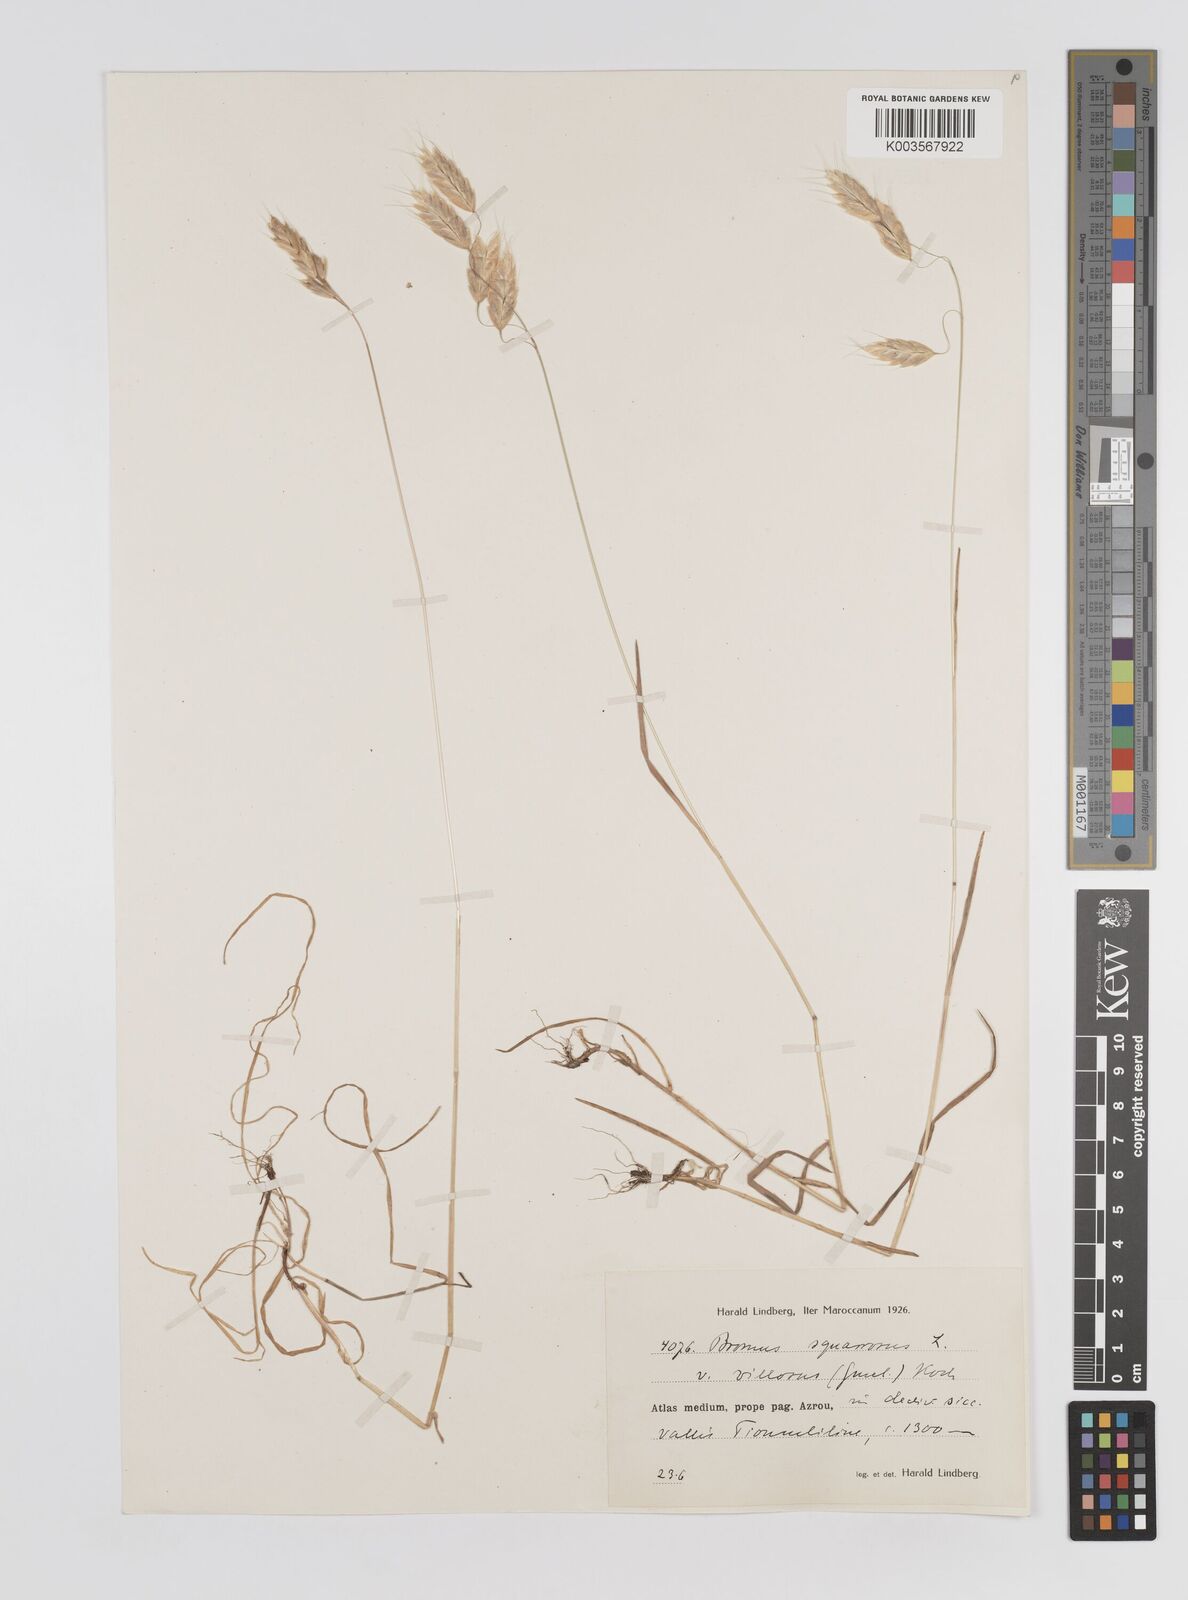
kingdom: Plantae
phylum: Tracheophyta
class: Liliopsida
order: Poales
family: Poaceae
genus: Bromus
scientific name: Bromus squarrosus
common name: Corn brome
